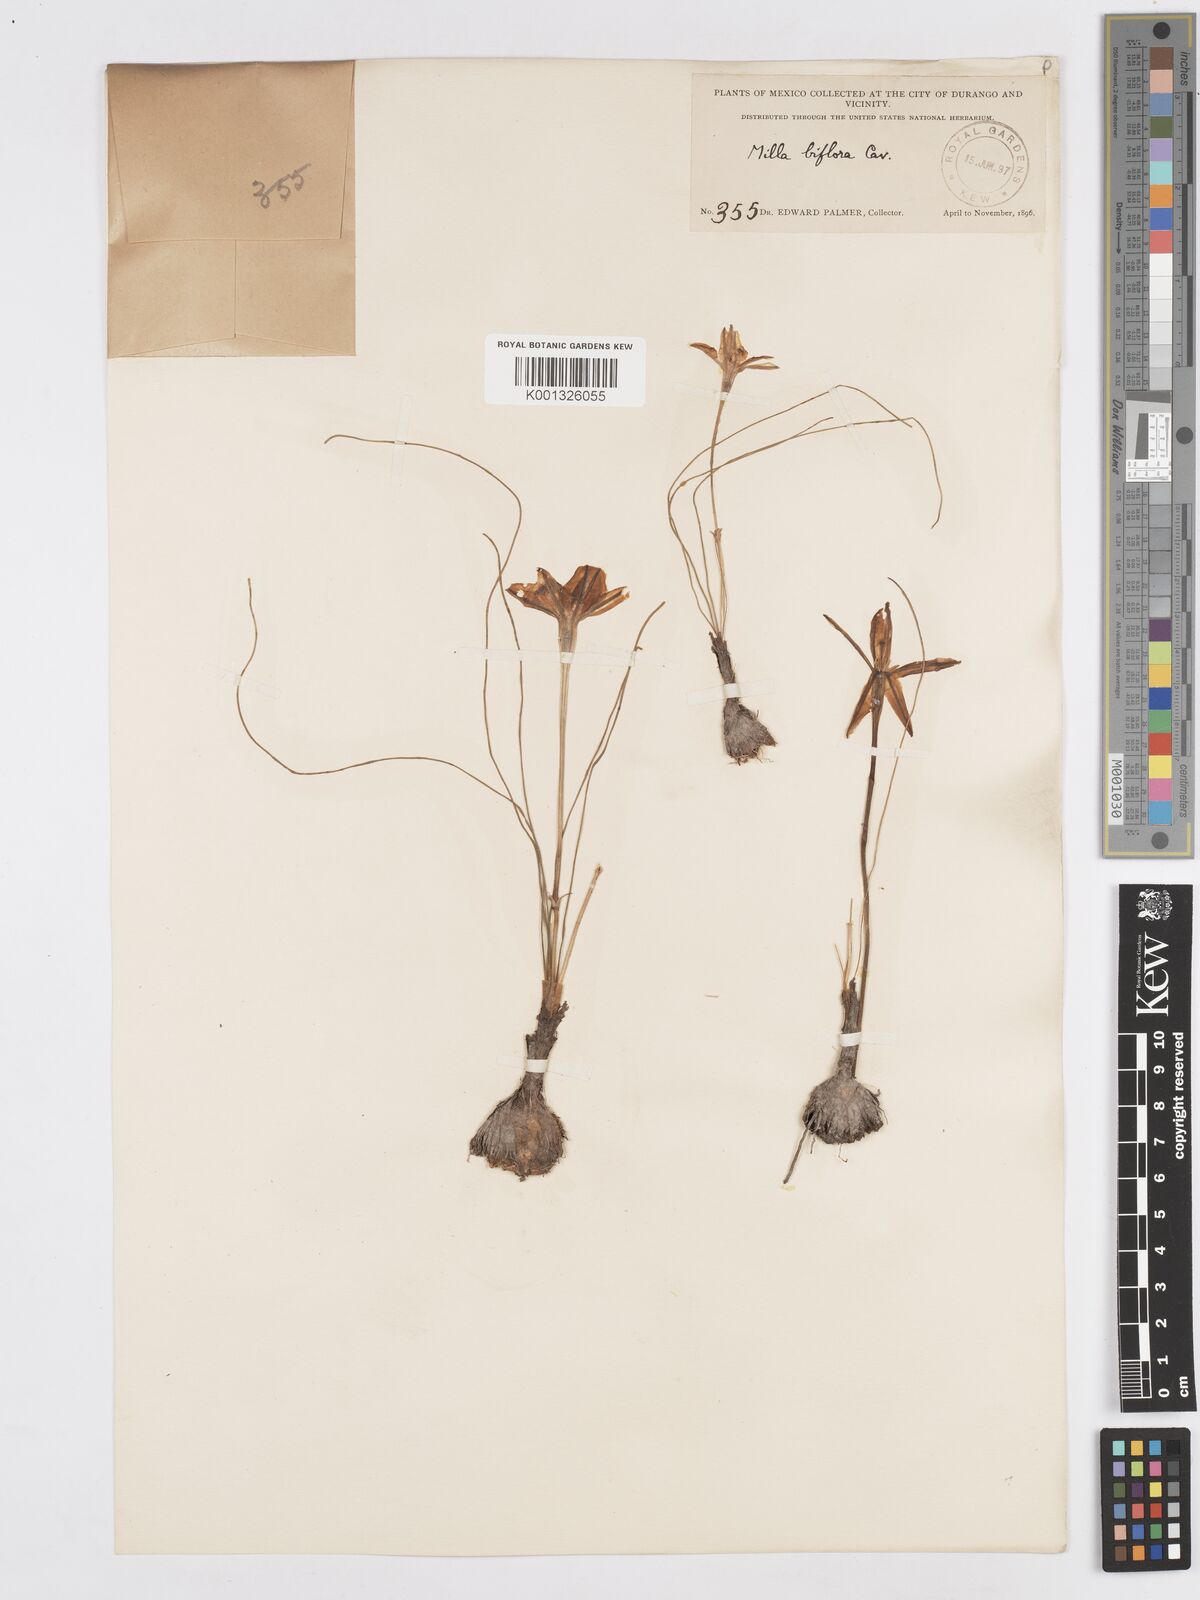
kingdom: Plantae
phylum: Tracheophyta
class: Liliopsida
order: Asparagales
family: Asparagaceae
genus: Milla
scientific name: Milla biflora
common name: Mexican-star
